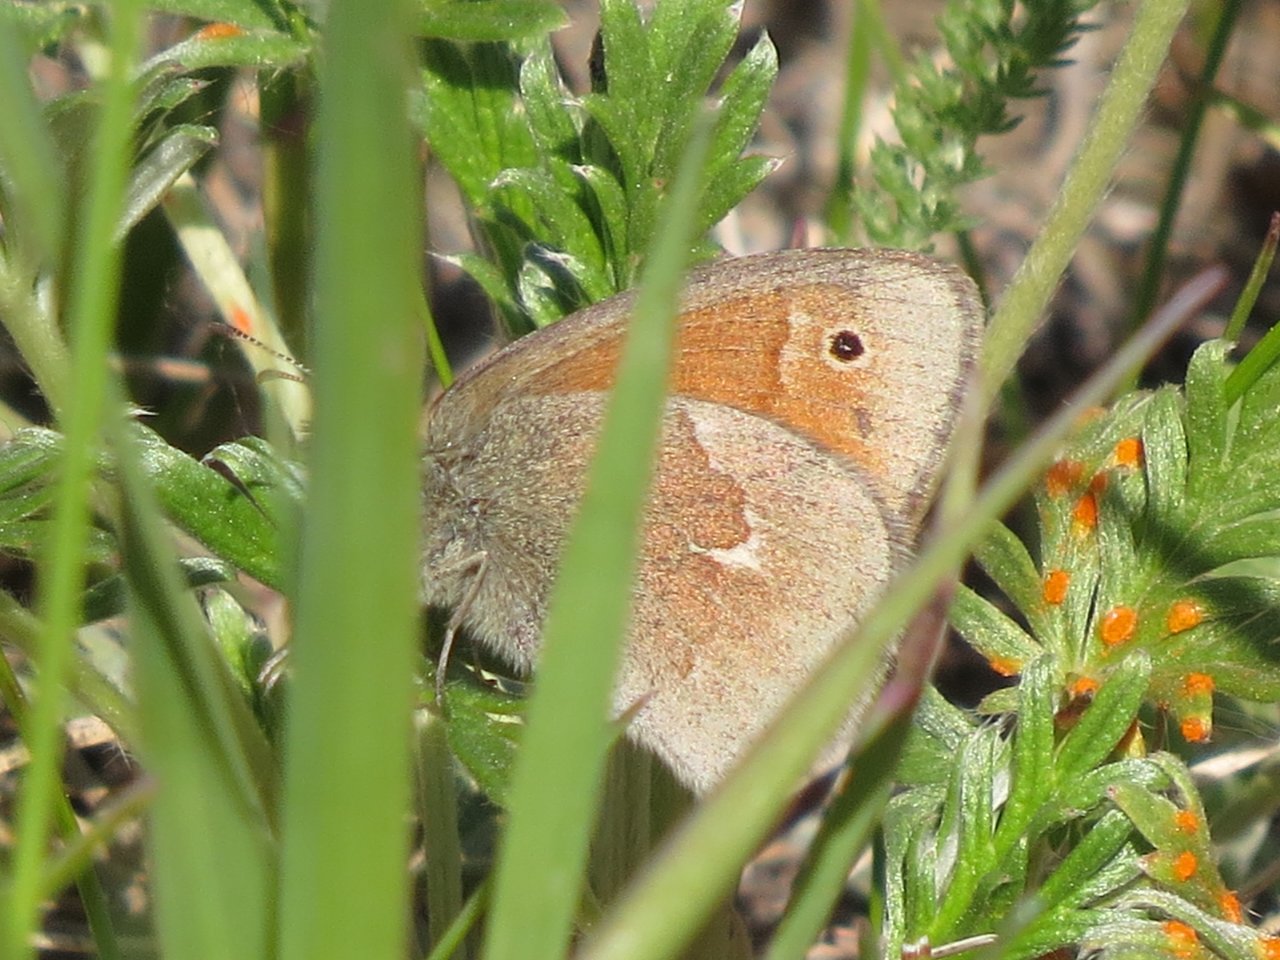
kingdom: Animalia
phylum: Arthropoda
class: Insecta
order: Lepidoptera
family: Nymphalidae
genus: Coenonympha
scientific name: Coenonympha tullia
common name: Large Heath
